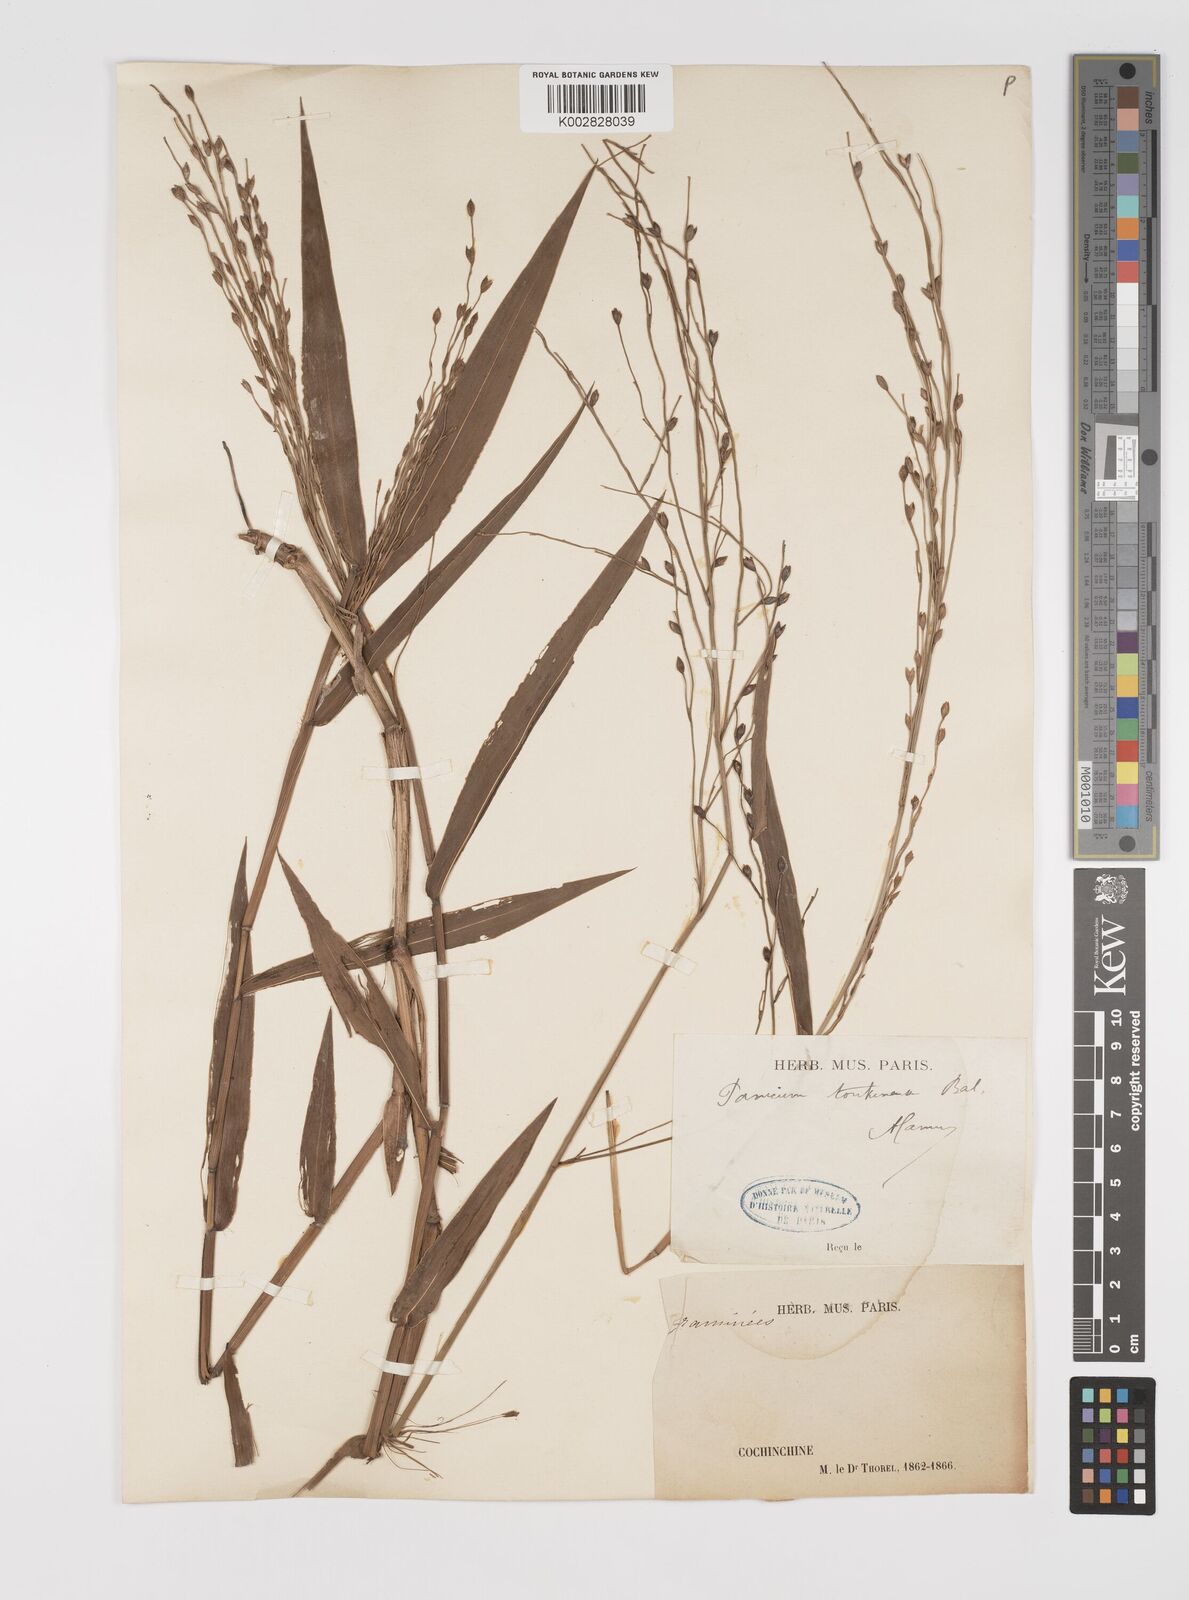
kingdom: Plantae
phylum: Tracheophyta
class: Liliopsida
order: Poales
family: Poaceae
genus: Acroceras
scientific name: Acroceras tonkinense
